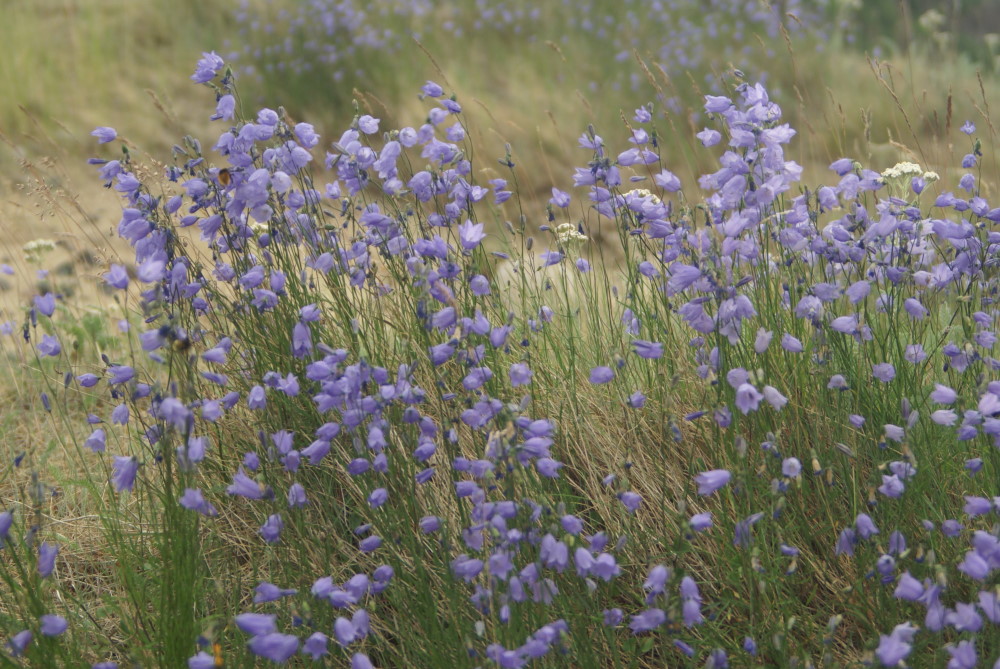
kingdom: Plantae
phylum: Tracheophyta
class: Magnoliopsida
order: Asterales
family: Campanulaceae
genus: Campanula
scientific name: Campanula rotundifolia
